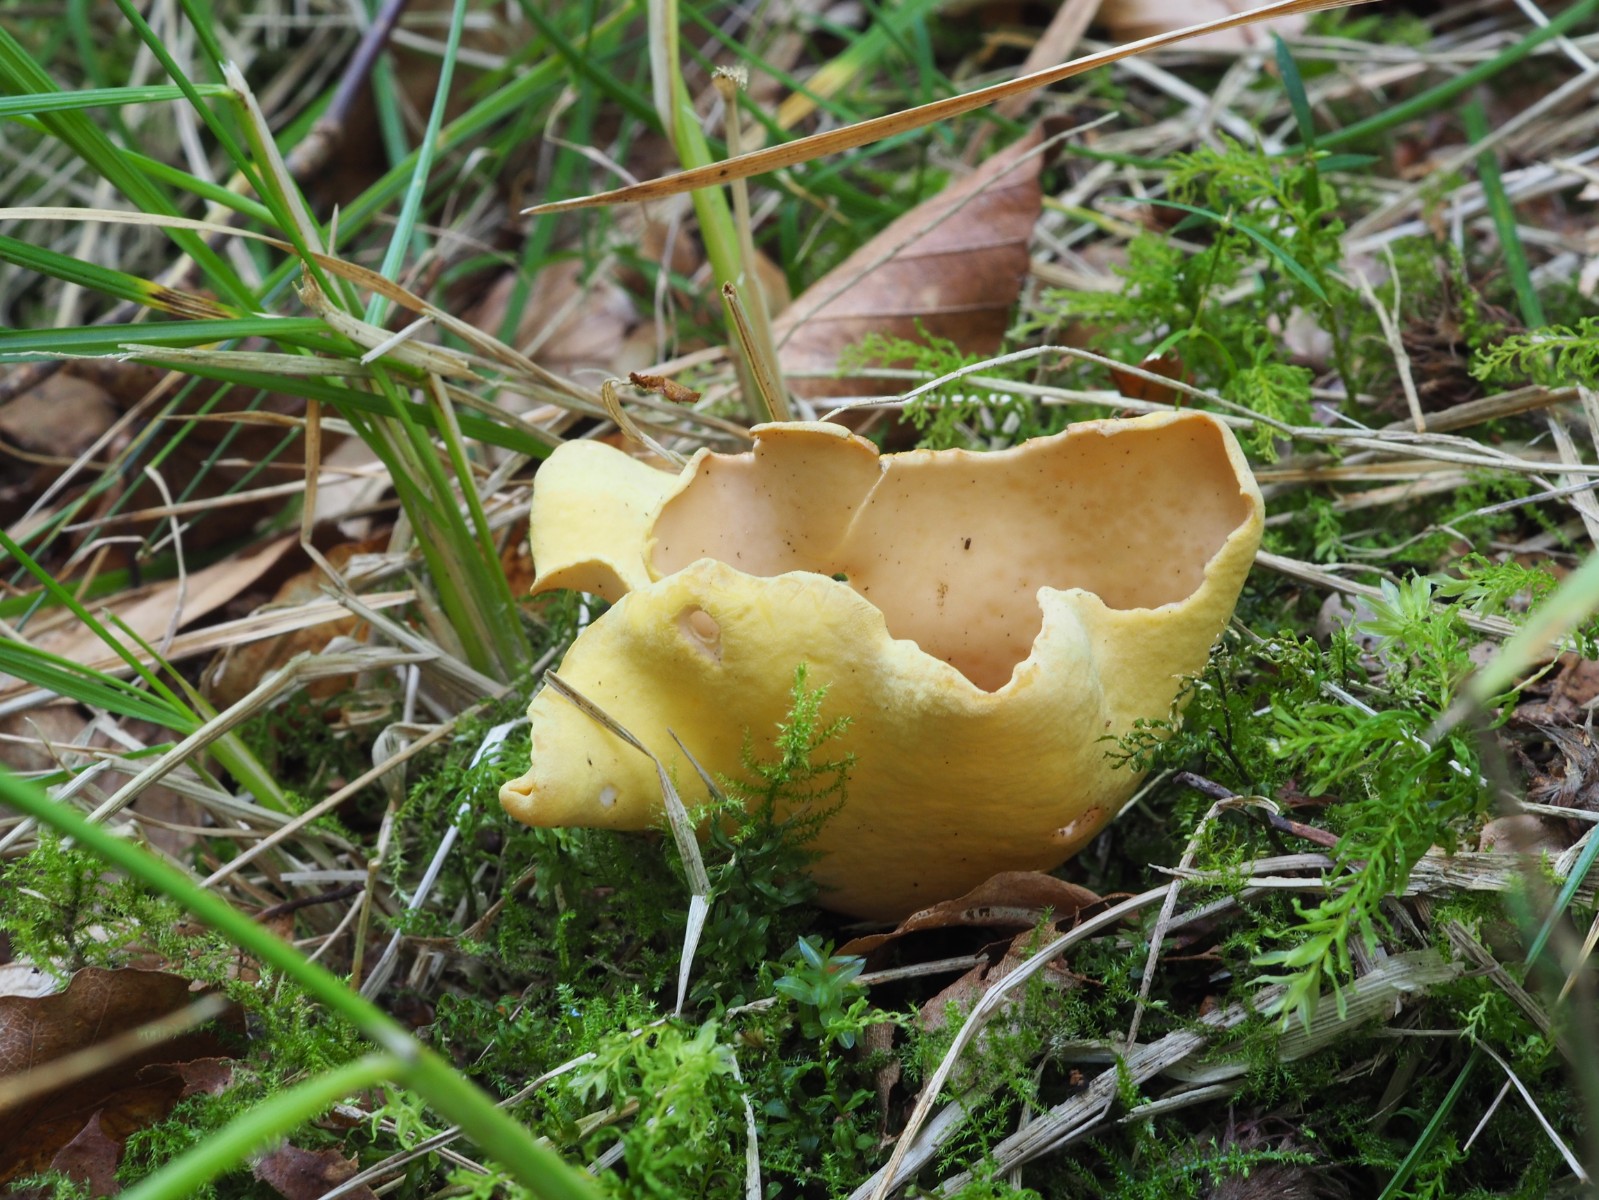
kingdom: Fungi
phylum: Ascomycota
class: Pezizomycetes
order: Pezizales
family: Otideaceae
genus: Otidea
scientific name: Otidea cantharella
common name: citrongul ørebæger
